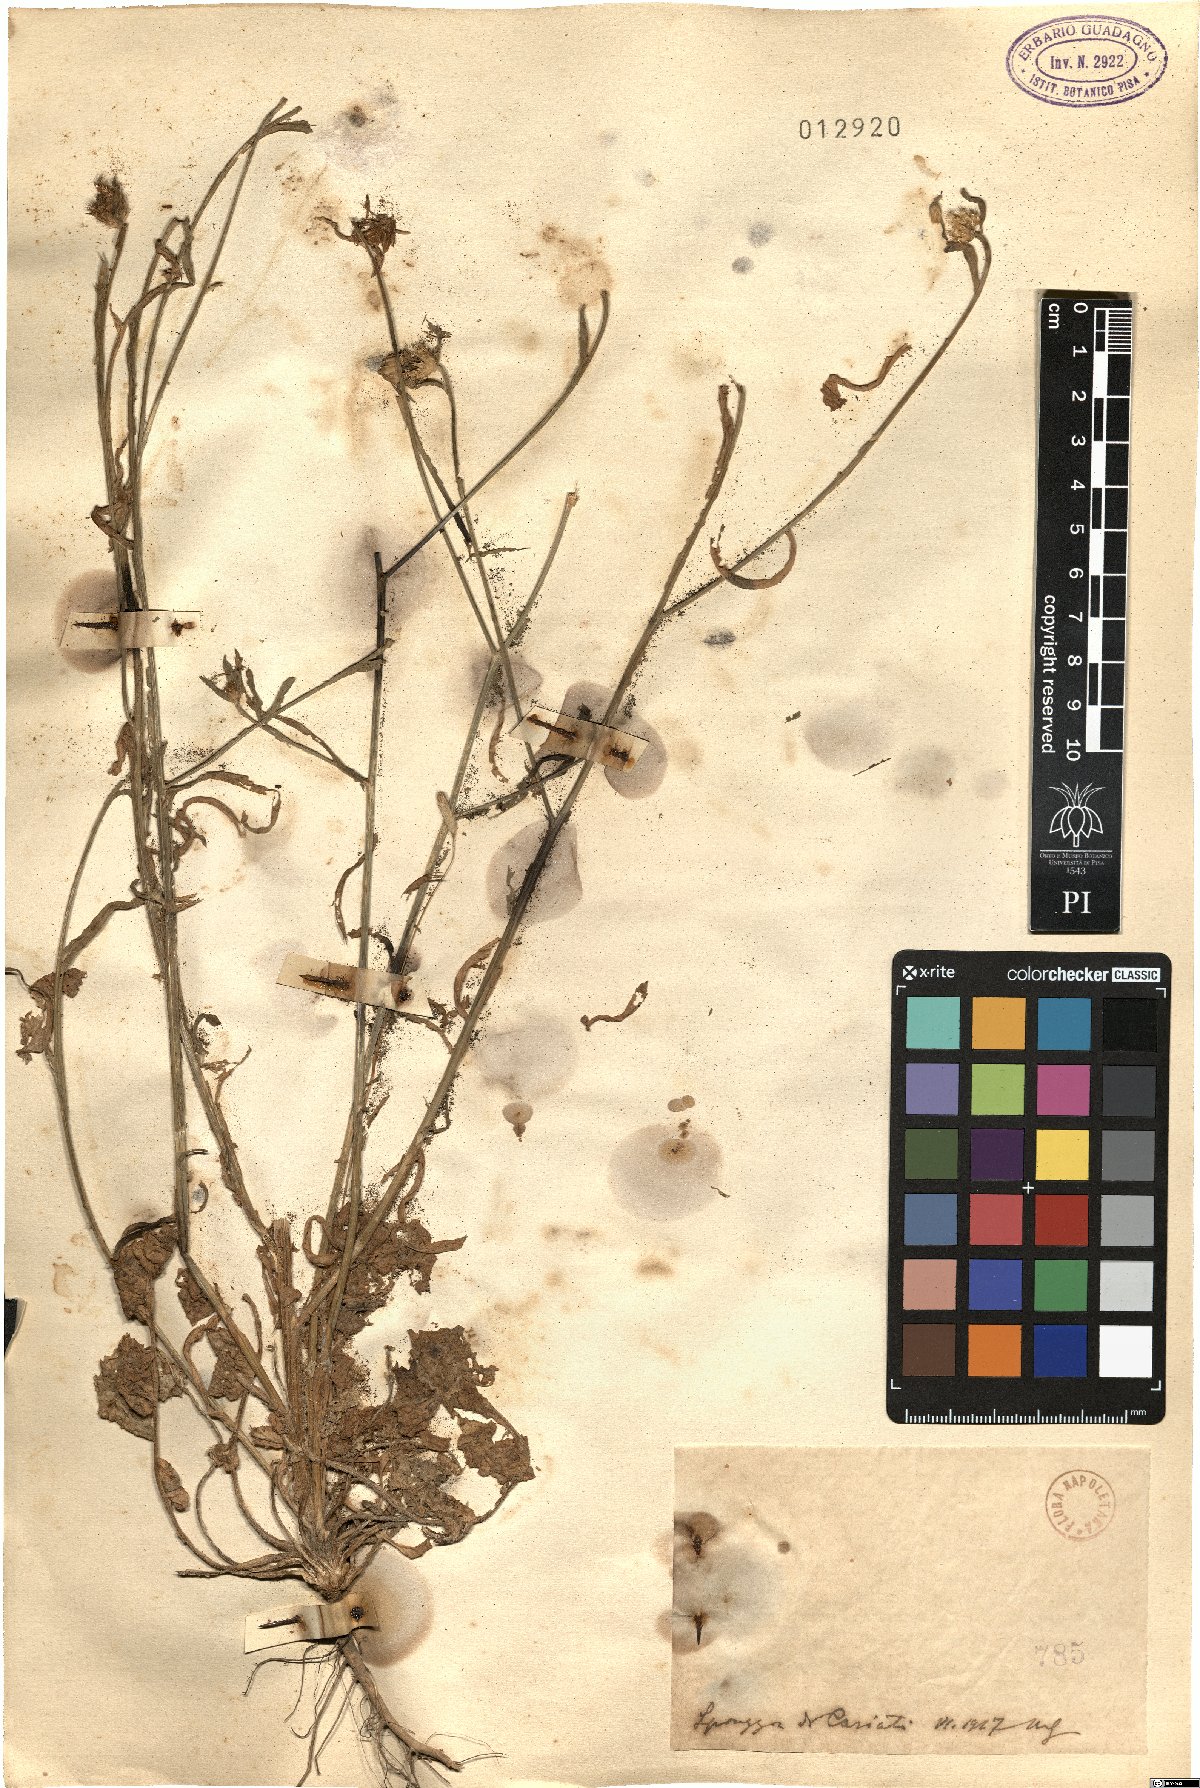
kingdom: Plantae
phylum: Tracheophyta
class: Magnoliopsida
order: Asterales
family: Asteraceae
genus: Centaurea
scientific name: Centaurea
